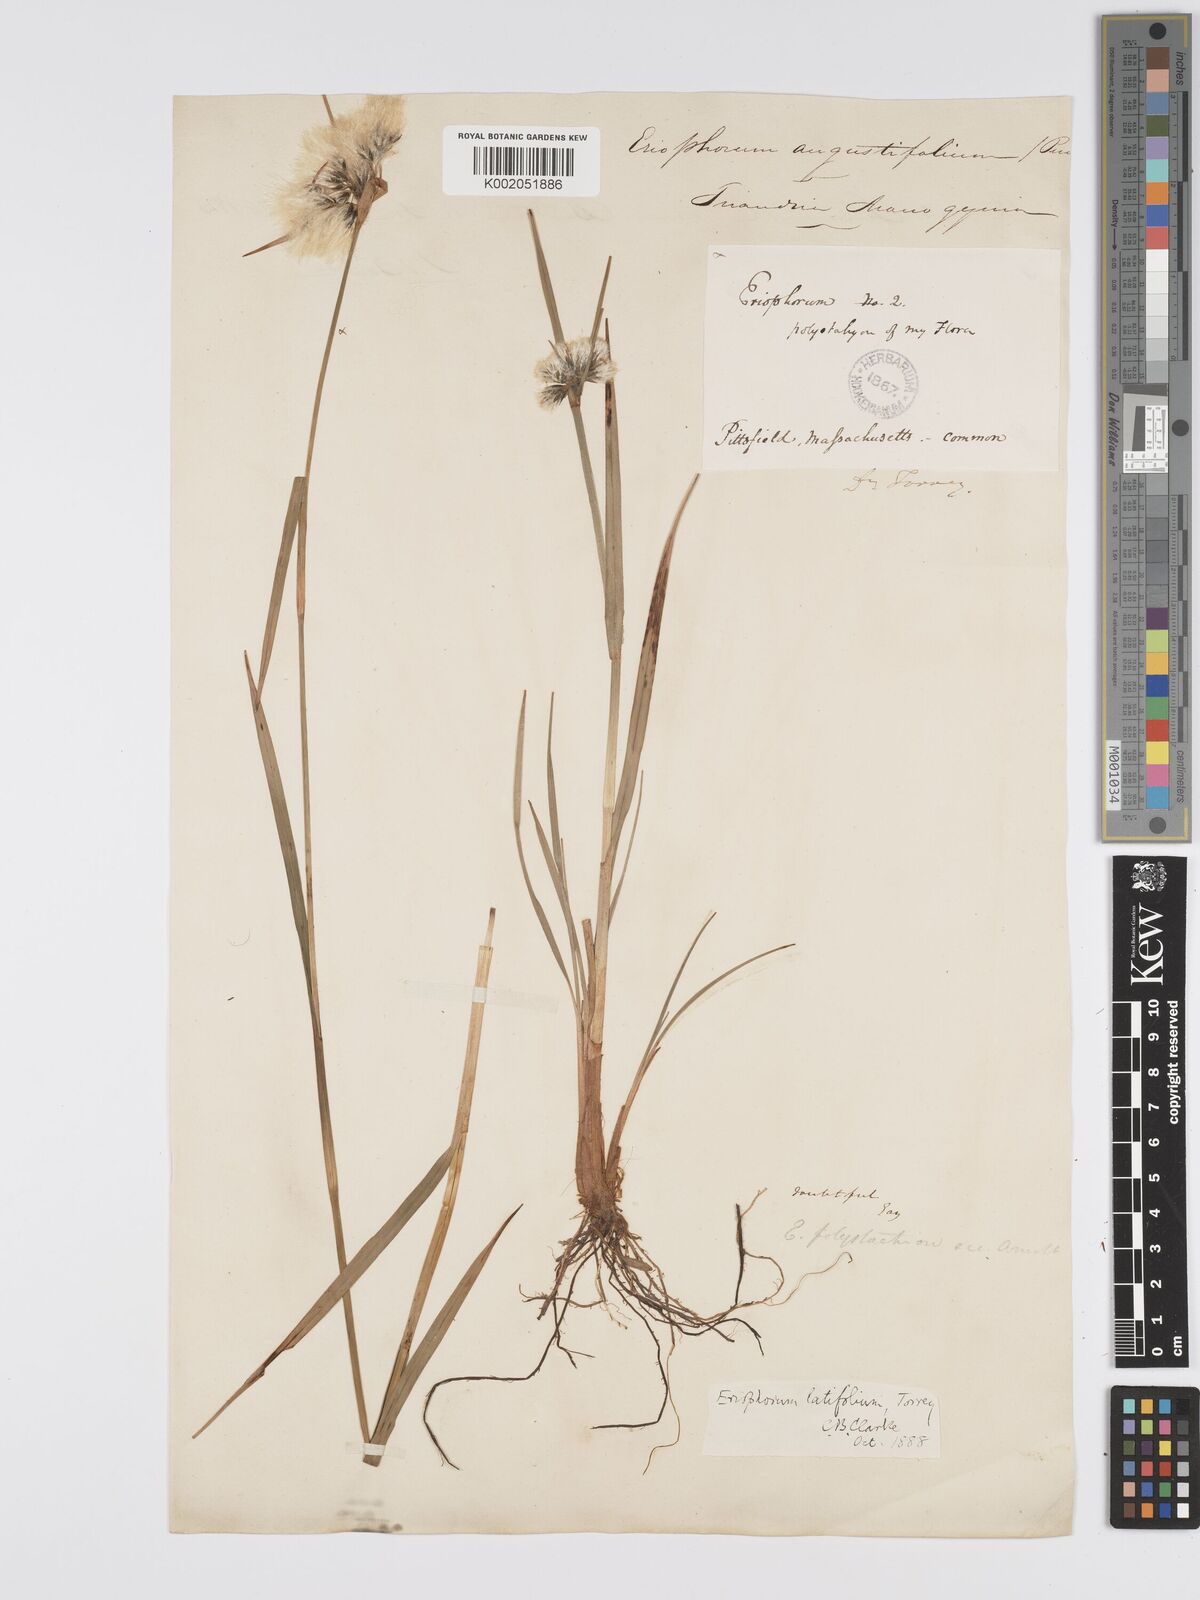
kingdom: Plantae
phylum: Tracheophyta
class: Liliopsida
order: Poales
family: Cyperaceae
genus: Eriophorum
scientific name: Eriophorum latifolium
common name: Broad-leaved cottongrass
